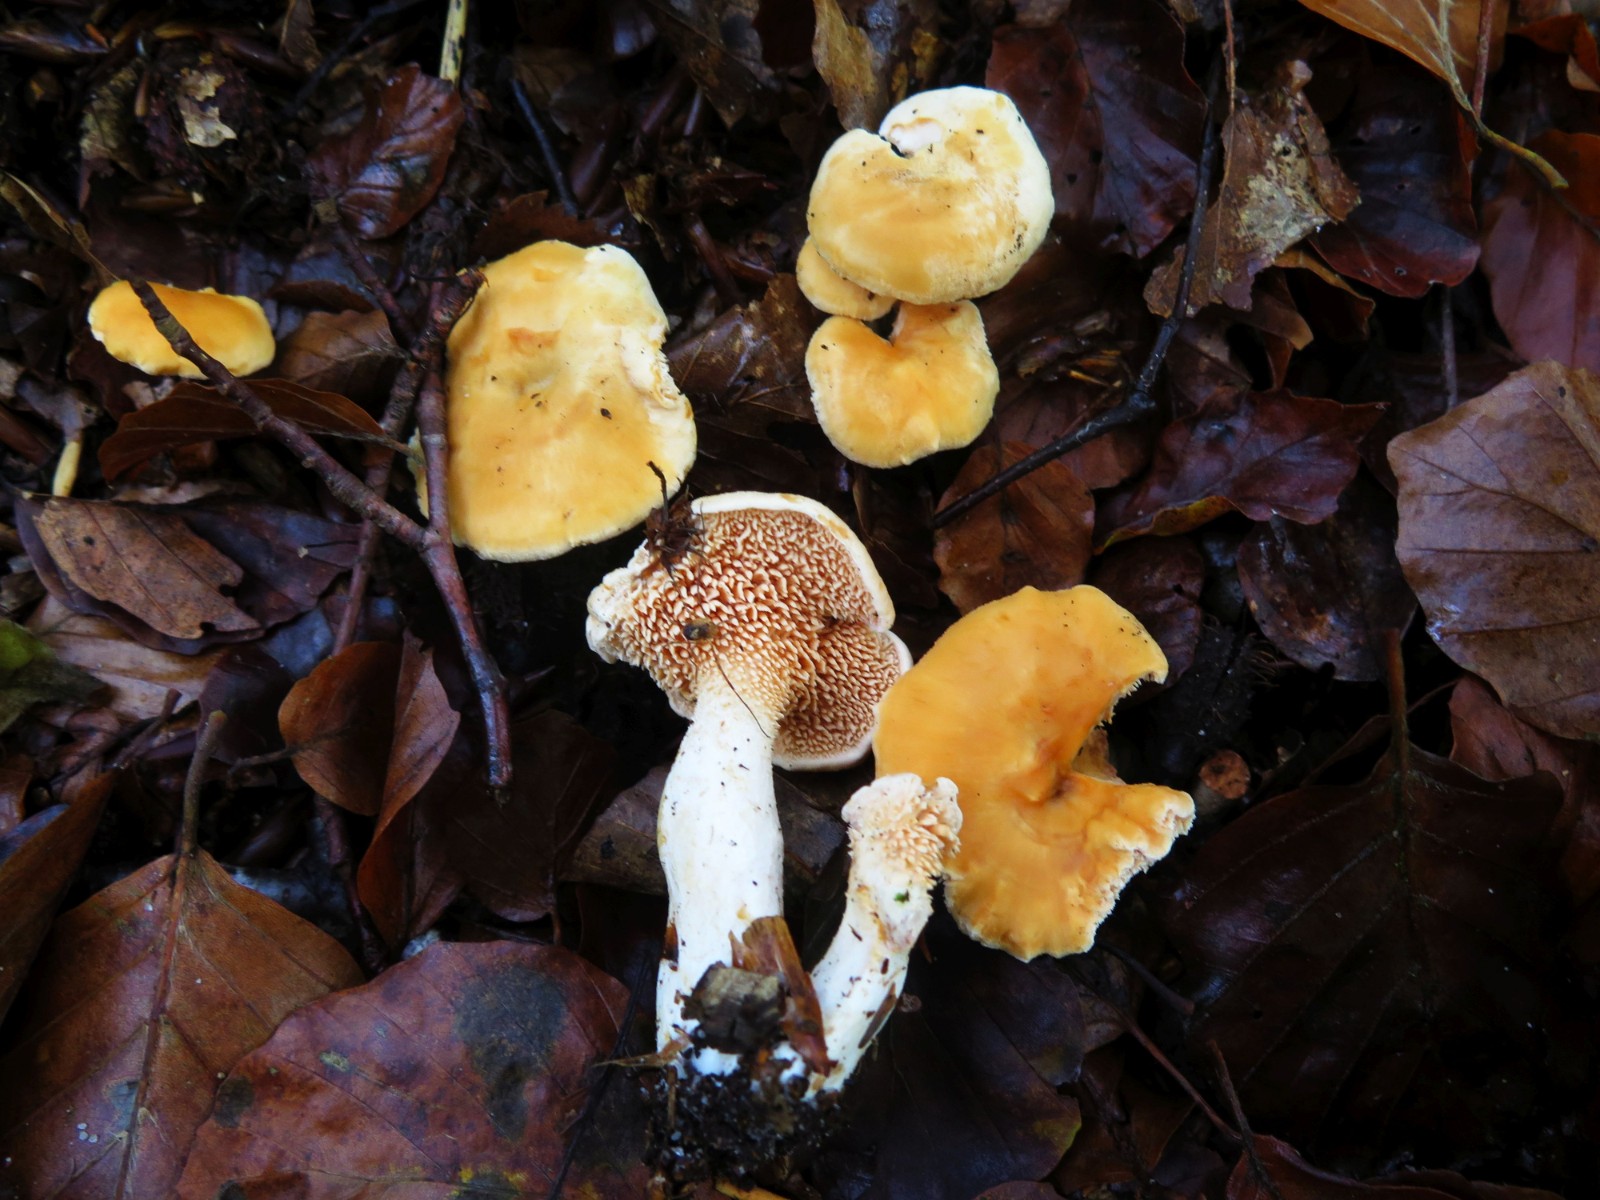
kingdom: Fungi
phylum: Basidiomycota
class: Agaricomycetes
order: Cantharellales
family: Hydnaceae
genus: Hydnum
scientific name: Hydnum rufescens
